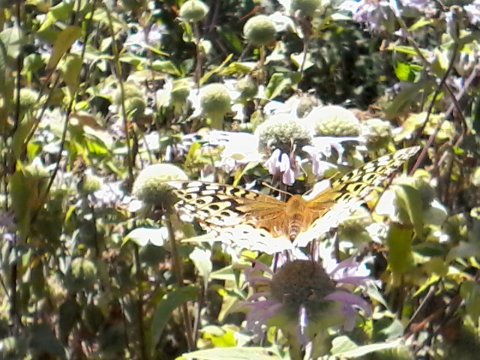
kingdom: Animalia
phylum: Arthropoda
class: Insecta
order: Lepidoptera
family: Nymphalidae
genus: Speyeria
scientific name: Speyeria cybele
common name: Great Spangled Fritillary
